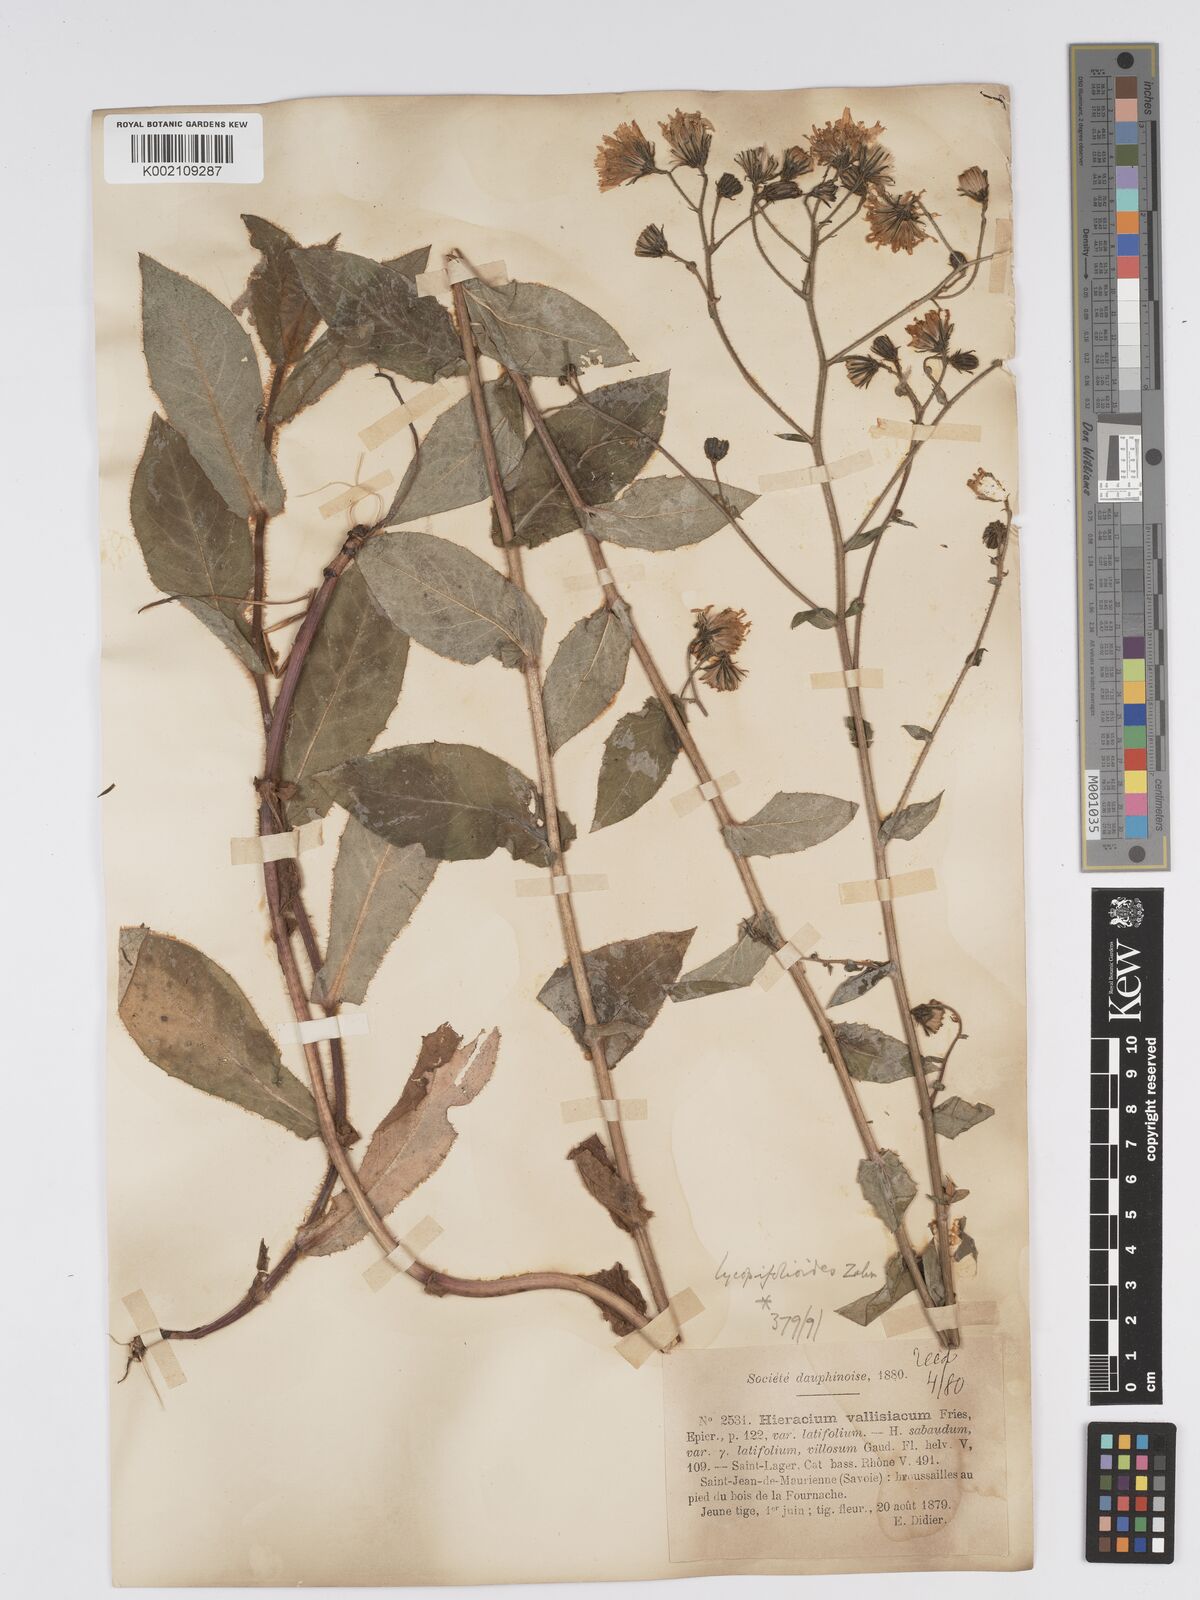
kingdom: Plantae
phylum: Tracheophyta
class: Magnoliopsida
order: Asterales
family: Asteraceae
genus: Hieracium
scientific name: Hieracium lycopifolium
